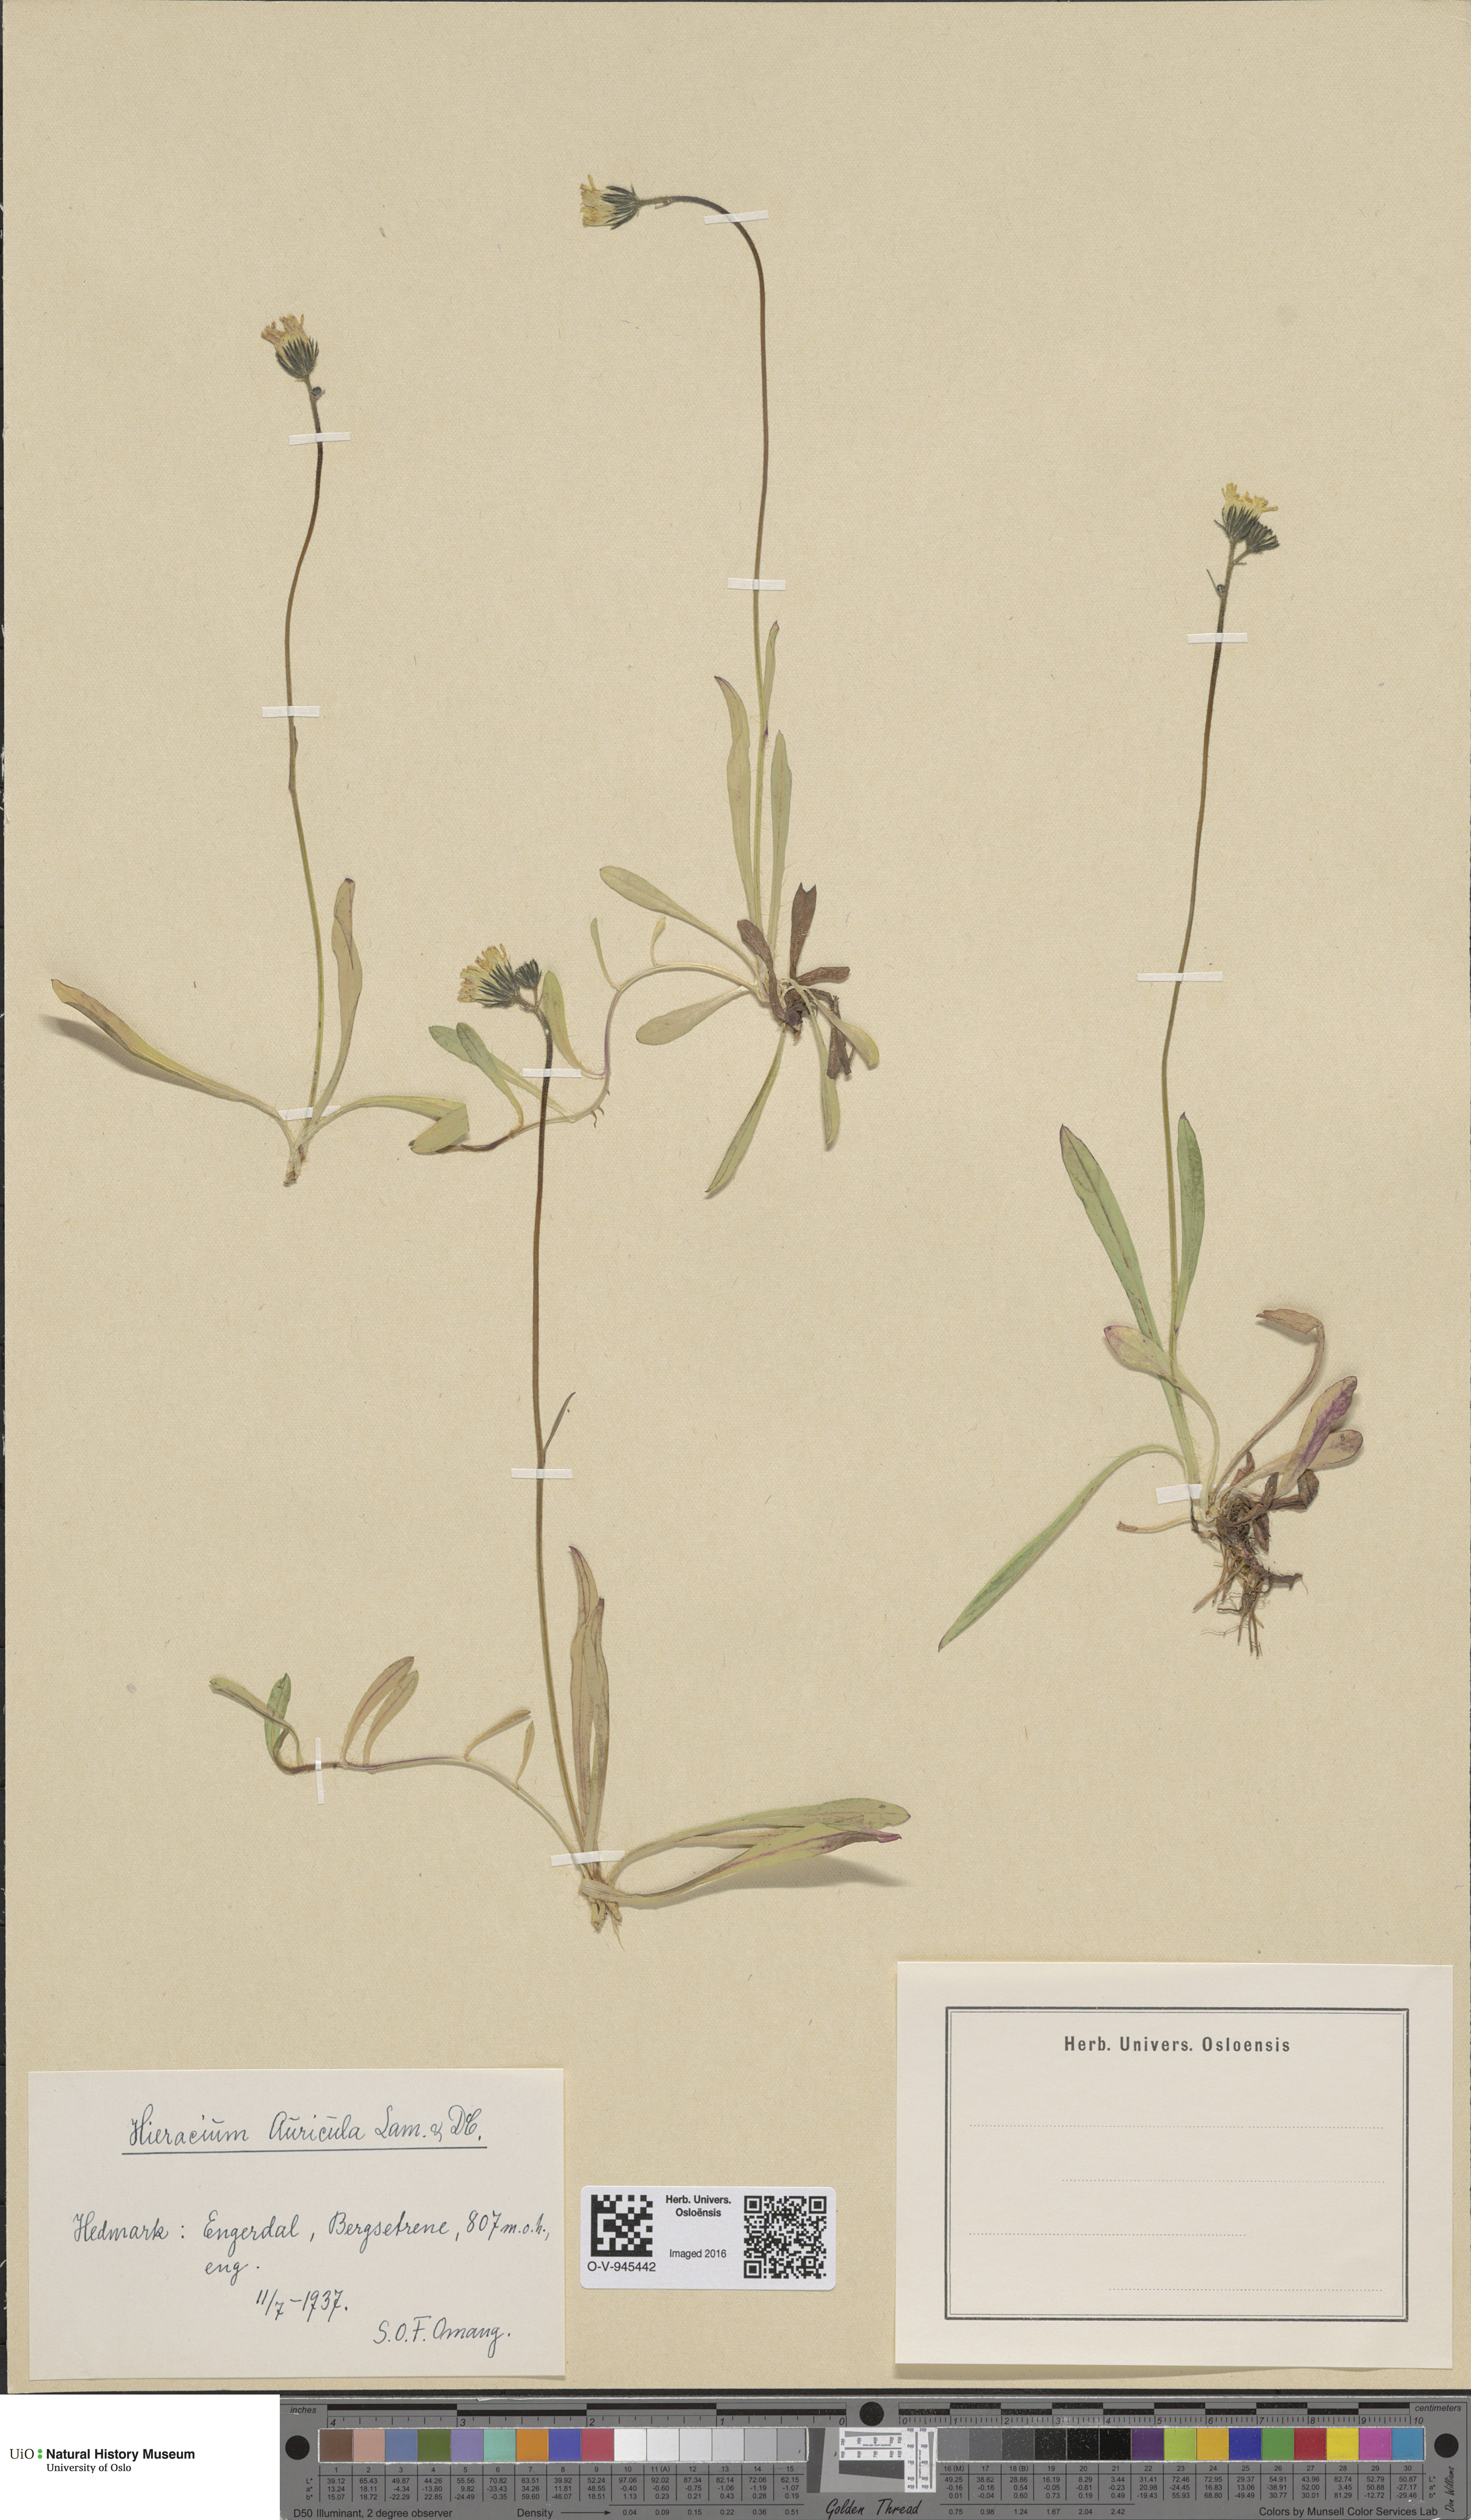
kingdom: Plantae
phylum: Tracheophyta
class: Magnoliopsida
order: Asterales
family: Asteraceae
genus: Pilosella
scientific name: Pilosella lactucella
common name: Glaucous fox-and-cubs
